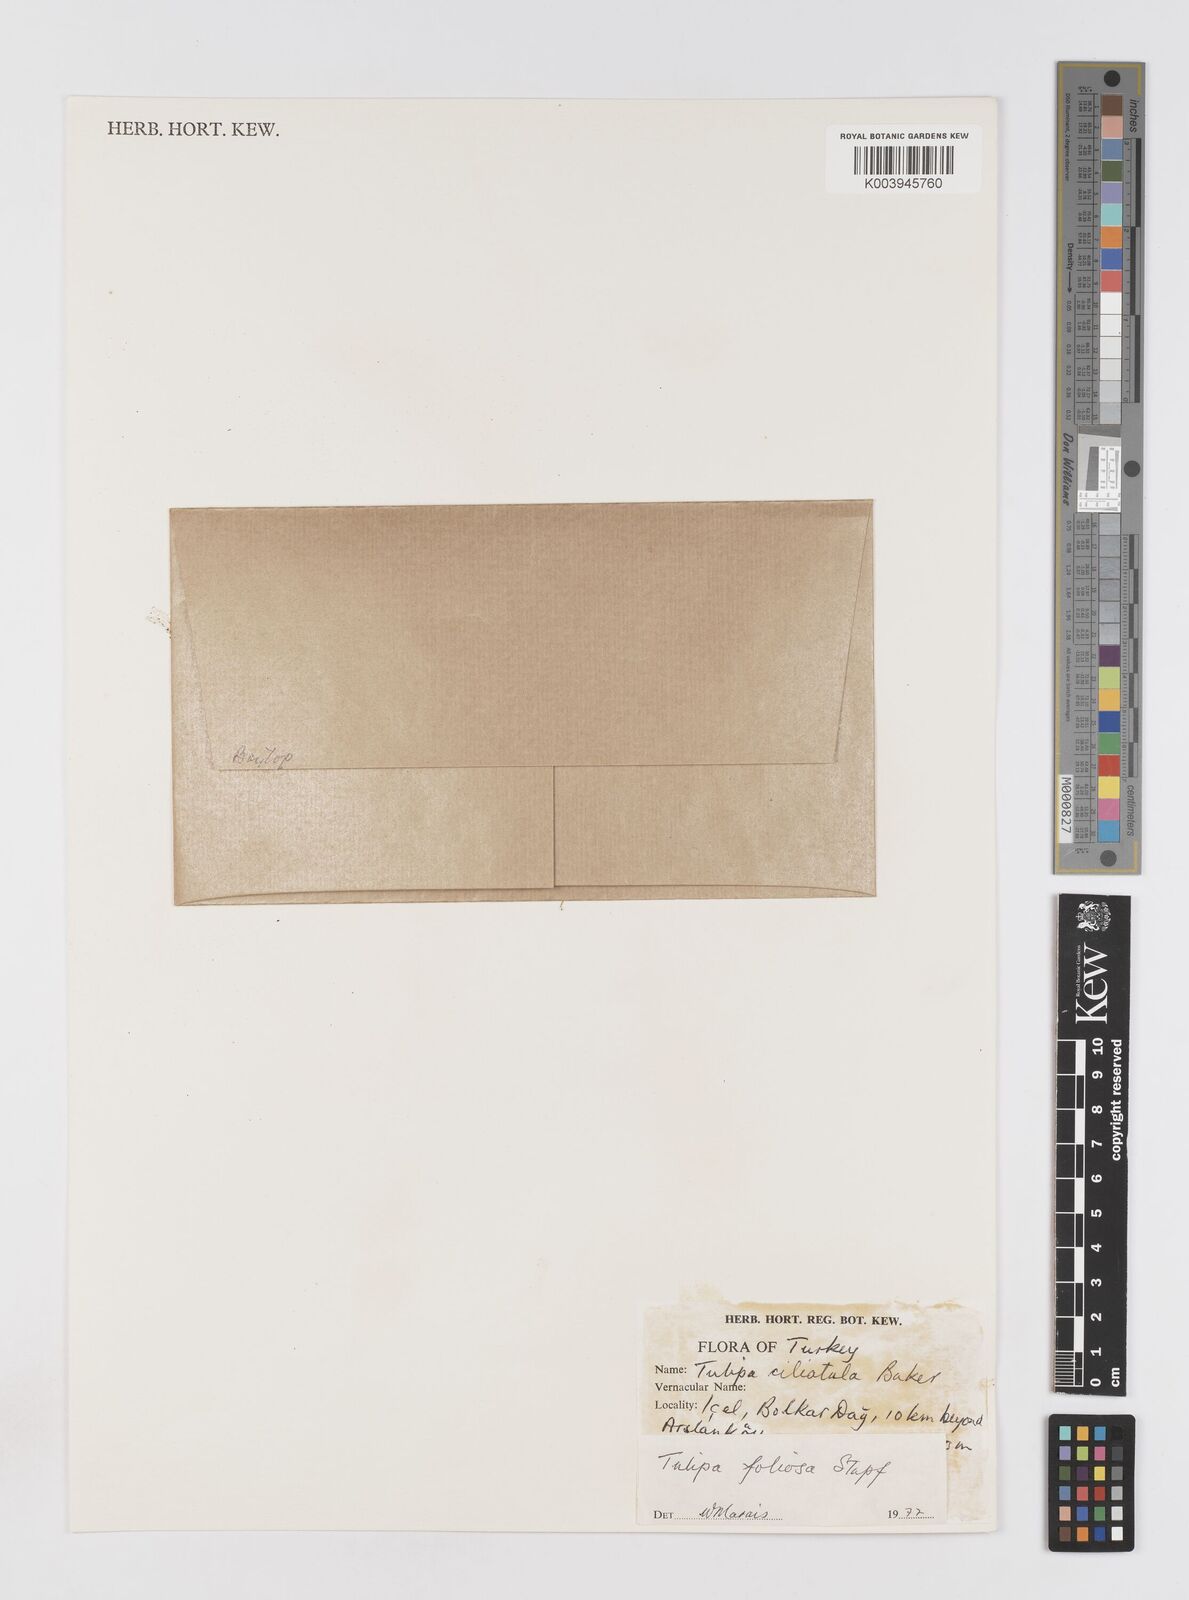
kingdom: Plantae
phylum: Tracheophyta
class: Liliopsida
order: Liliales
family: Liliaceae
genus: Tulipa
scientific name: Tulipa foliosa
